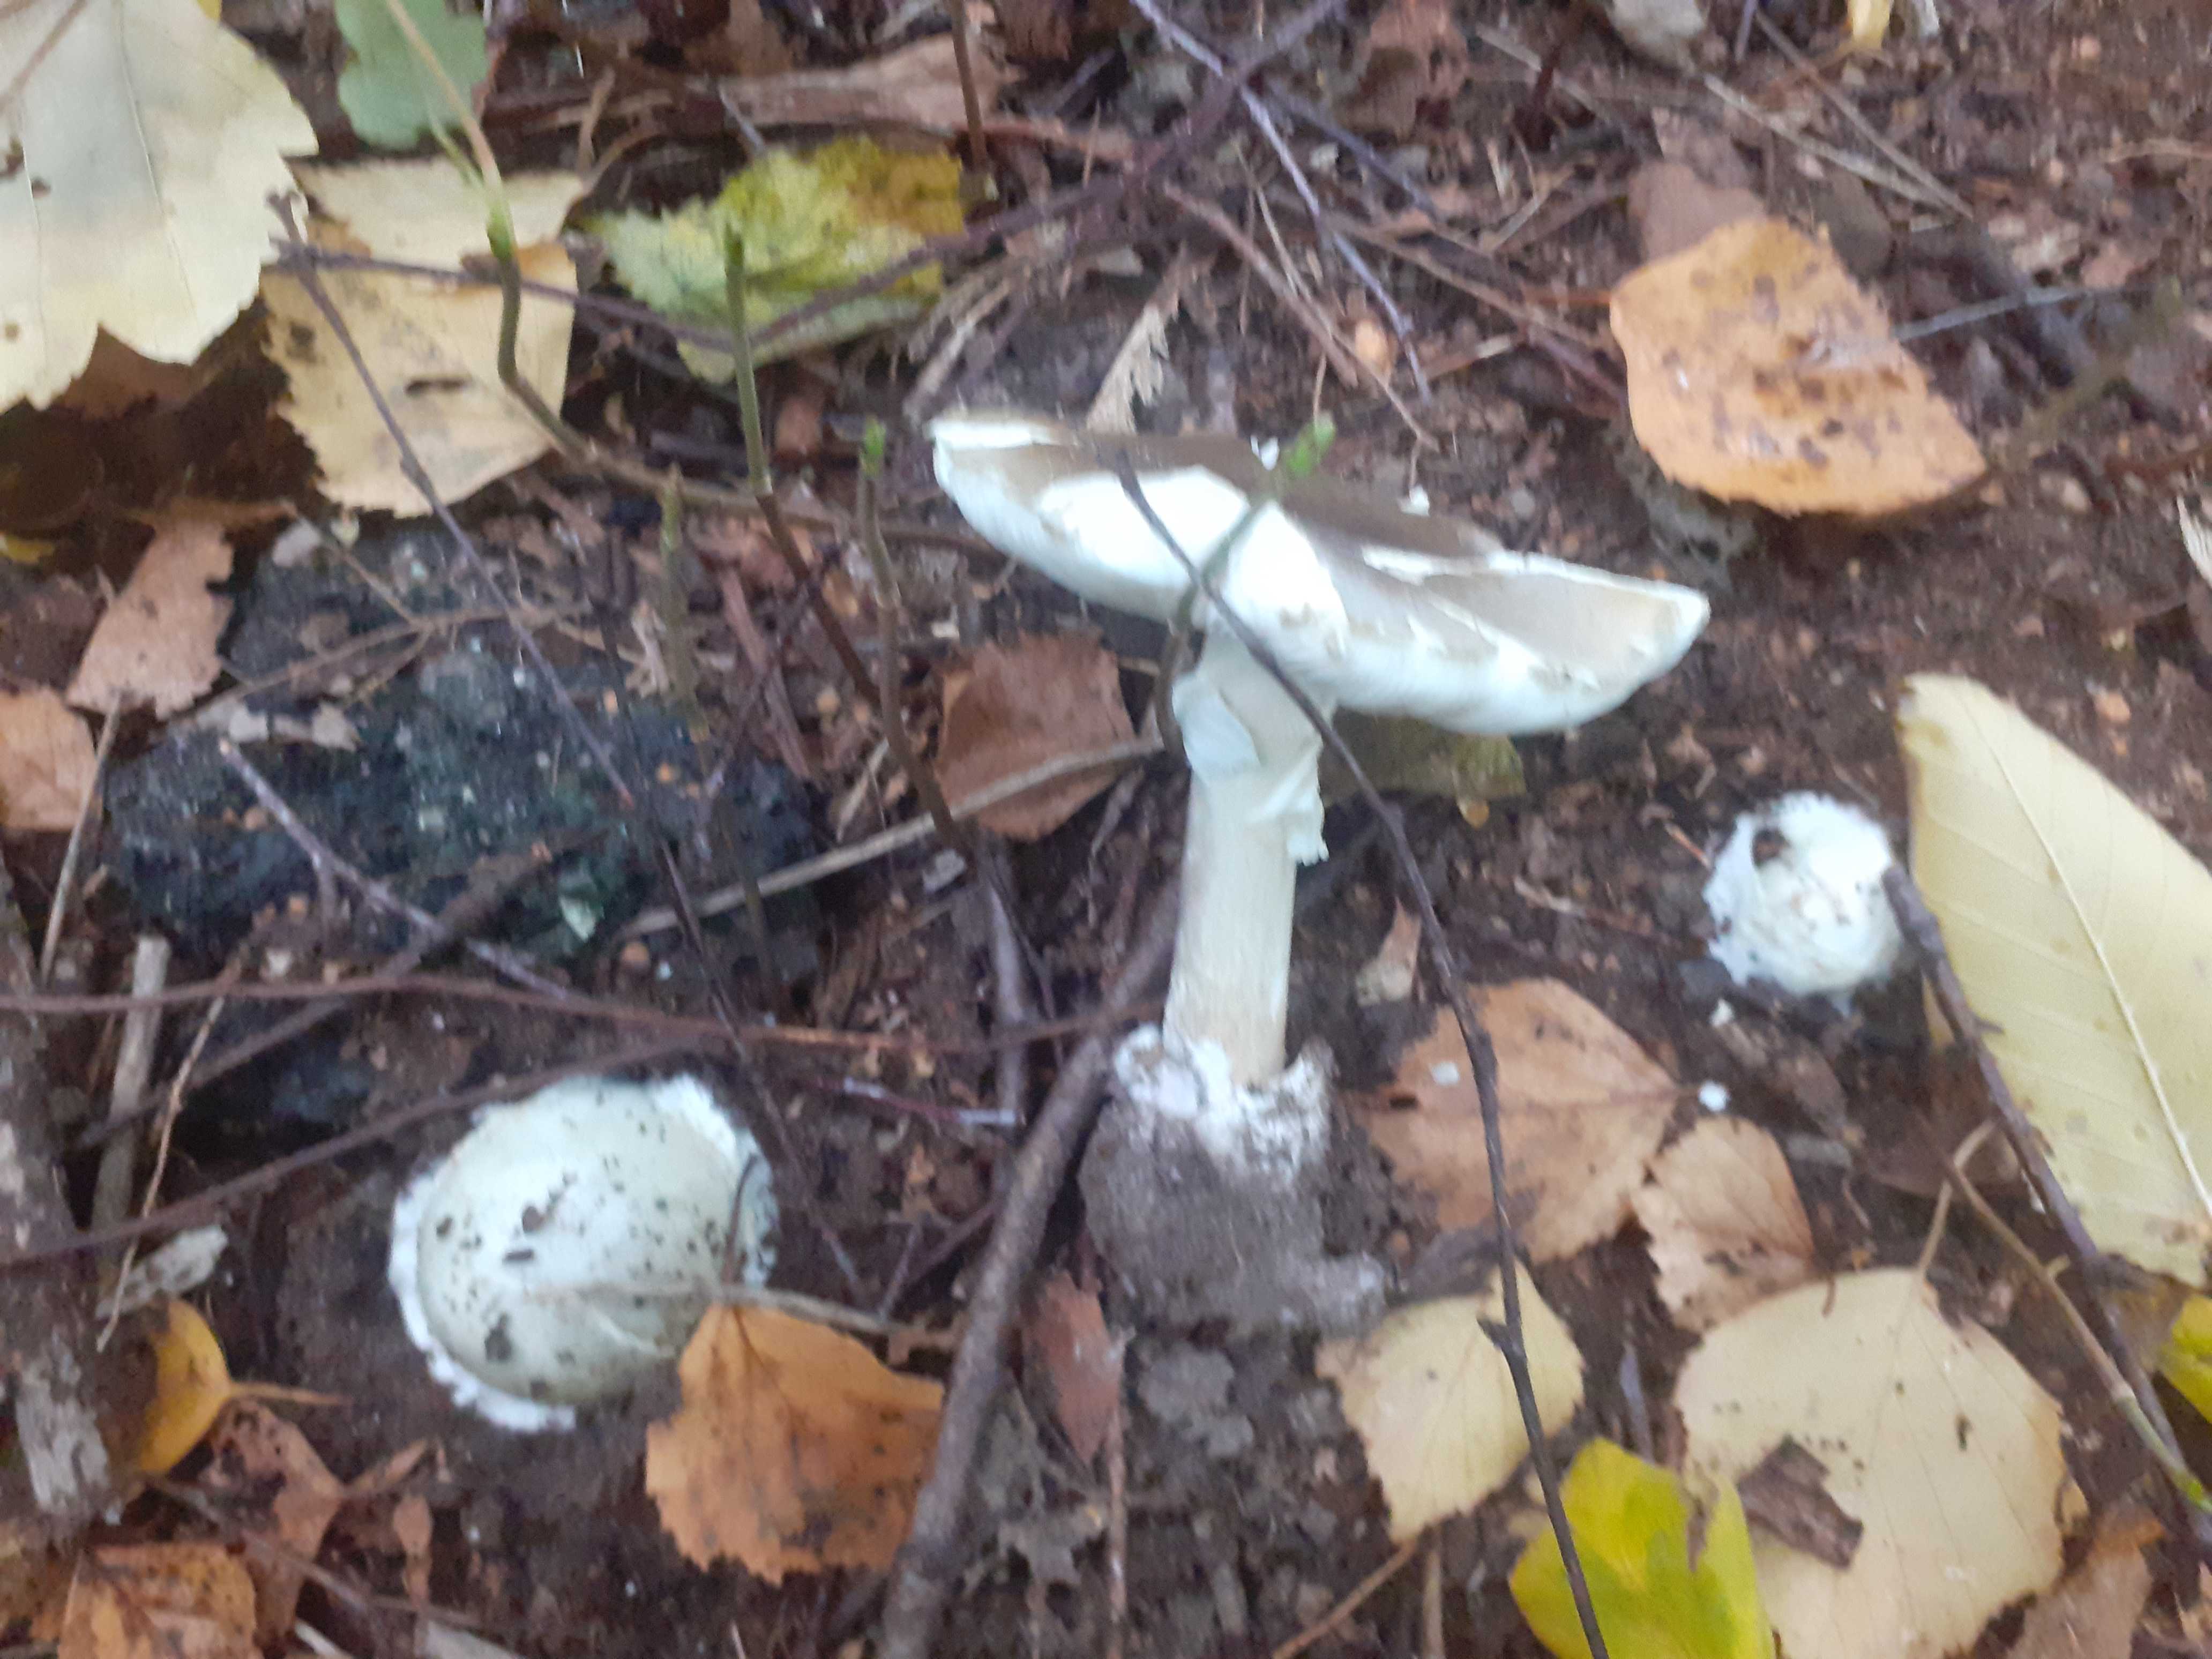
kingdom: Fungi
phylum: Basidiomycota
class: Agaricomycetes
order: Agaricales
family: Amanitaceae
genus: Amanita
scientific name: Amanita phalloides
